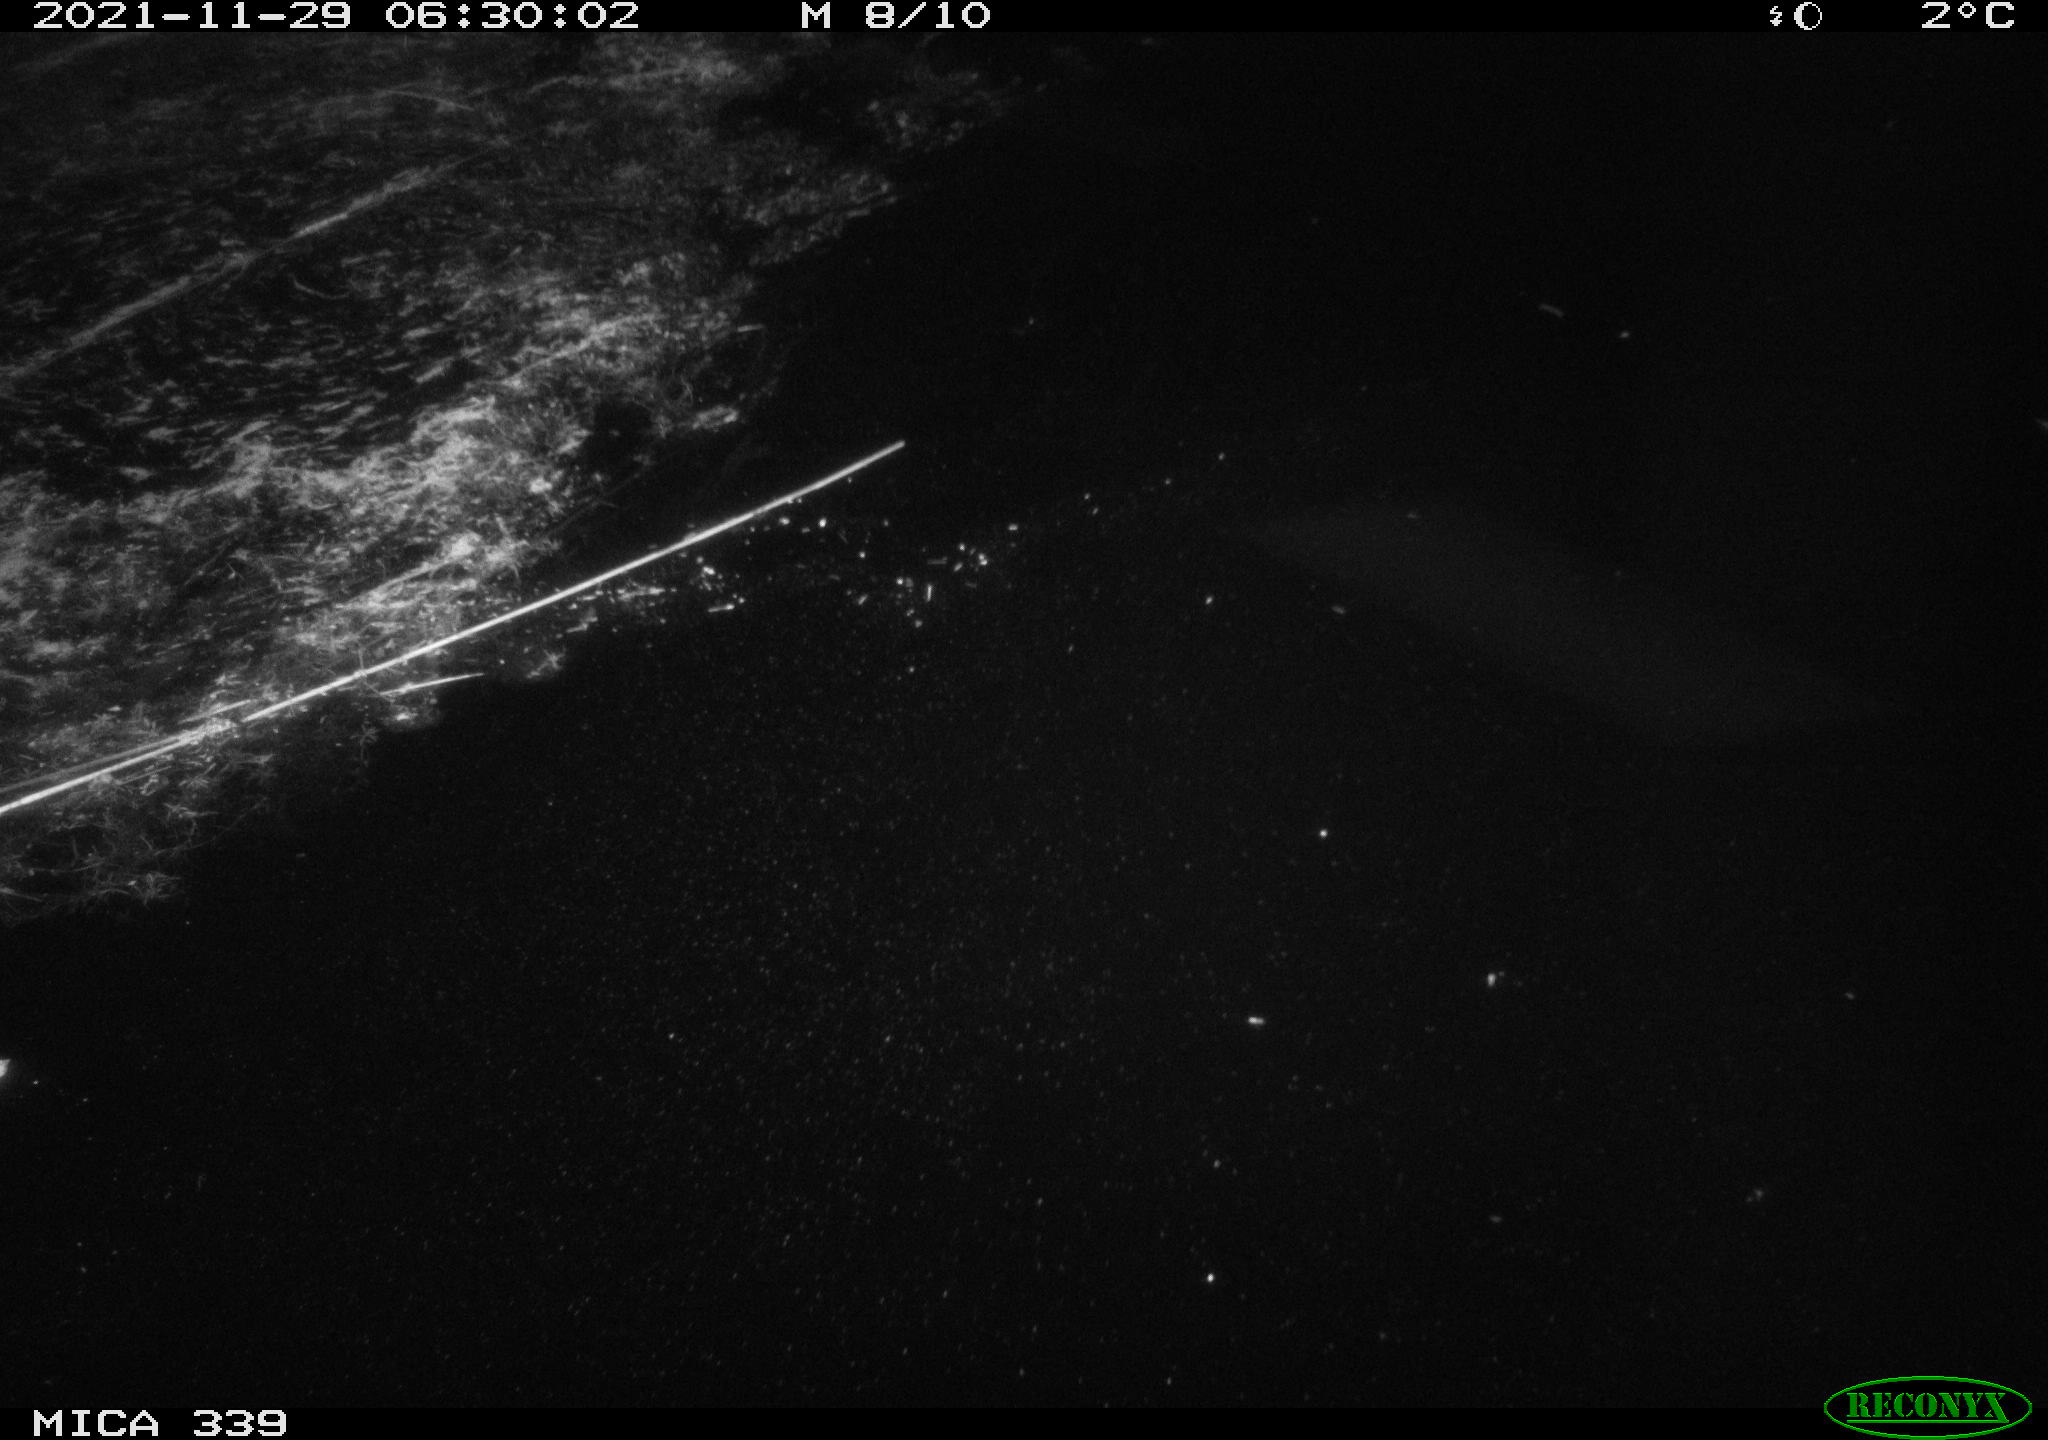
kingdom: Animalia
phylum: Chordata
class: Mammalia
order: Rodentia
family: Muridae
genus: Rattus
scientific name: Rattus norvegicus
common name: Brown rat
